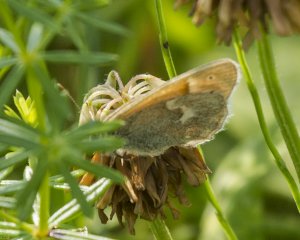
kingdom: Animalia
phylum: Arthropoda
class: Insecta
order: Lepidoptera
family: Nymphalidae
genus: Coenonympha
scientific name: Coenonympha tullia
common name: Large Heath
